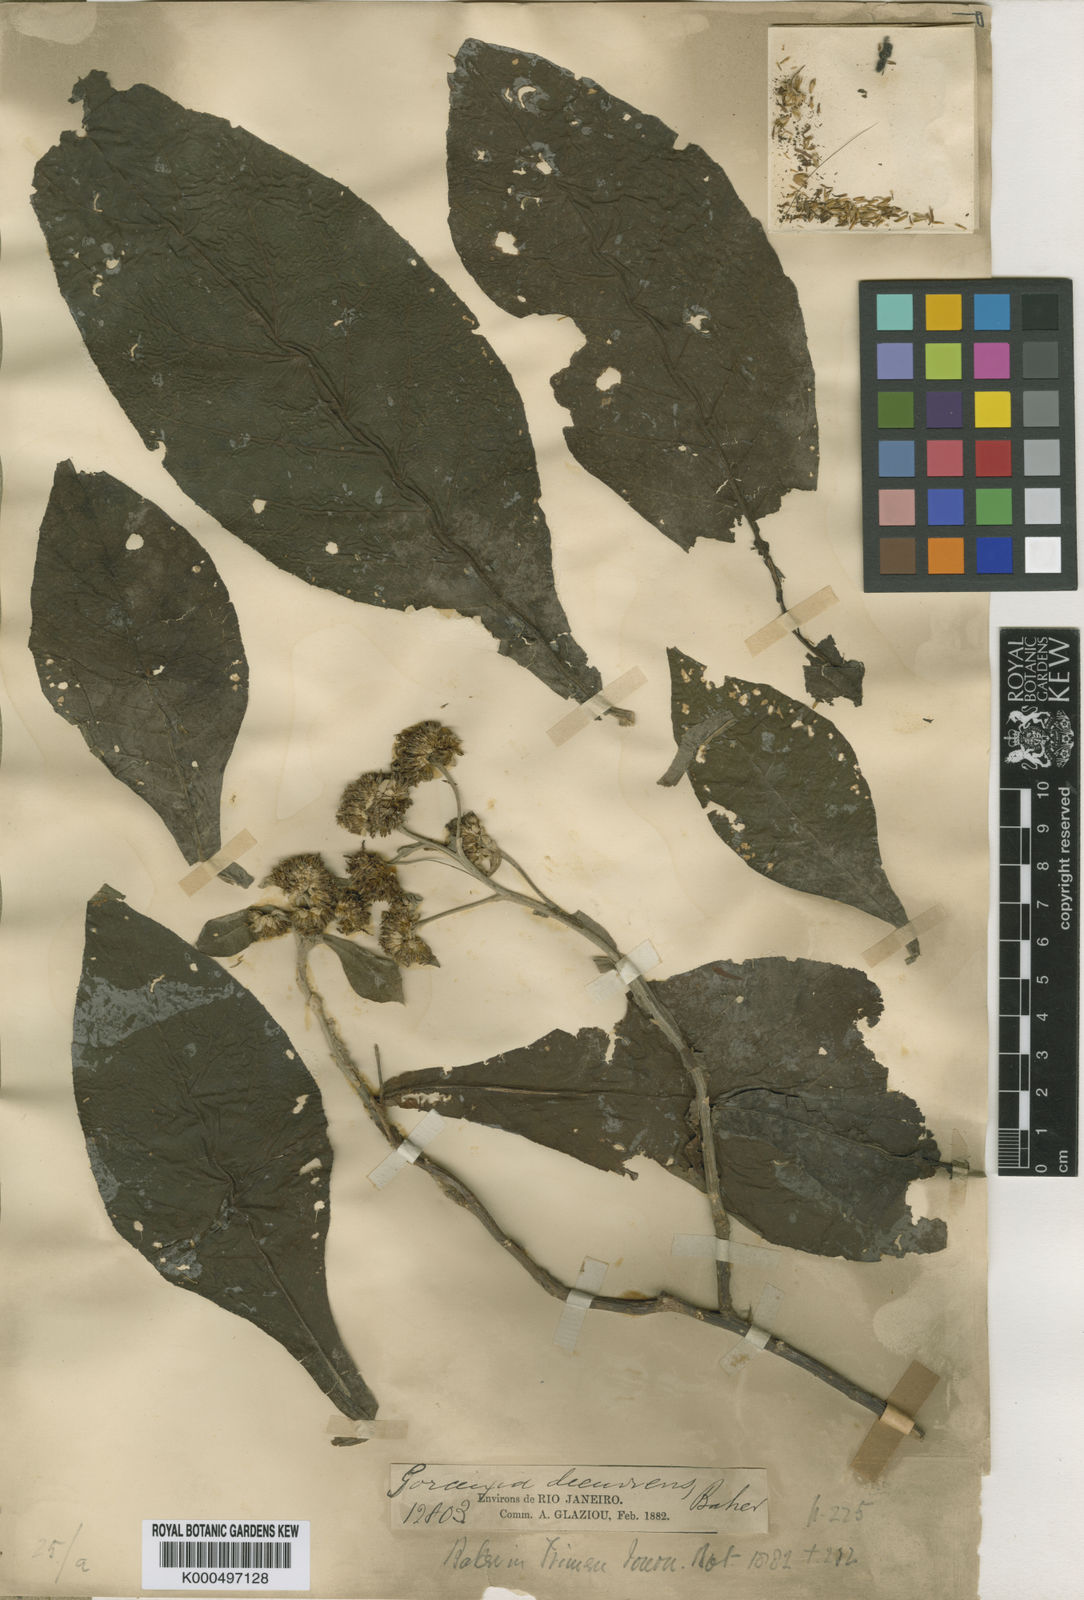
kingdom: Plantae
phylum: Tracheophyta
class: Magnoliopsida
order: Asterales
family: Asteraceae
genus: Gorceixia
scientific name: Gorceixia decurrens
